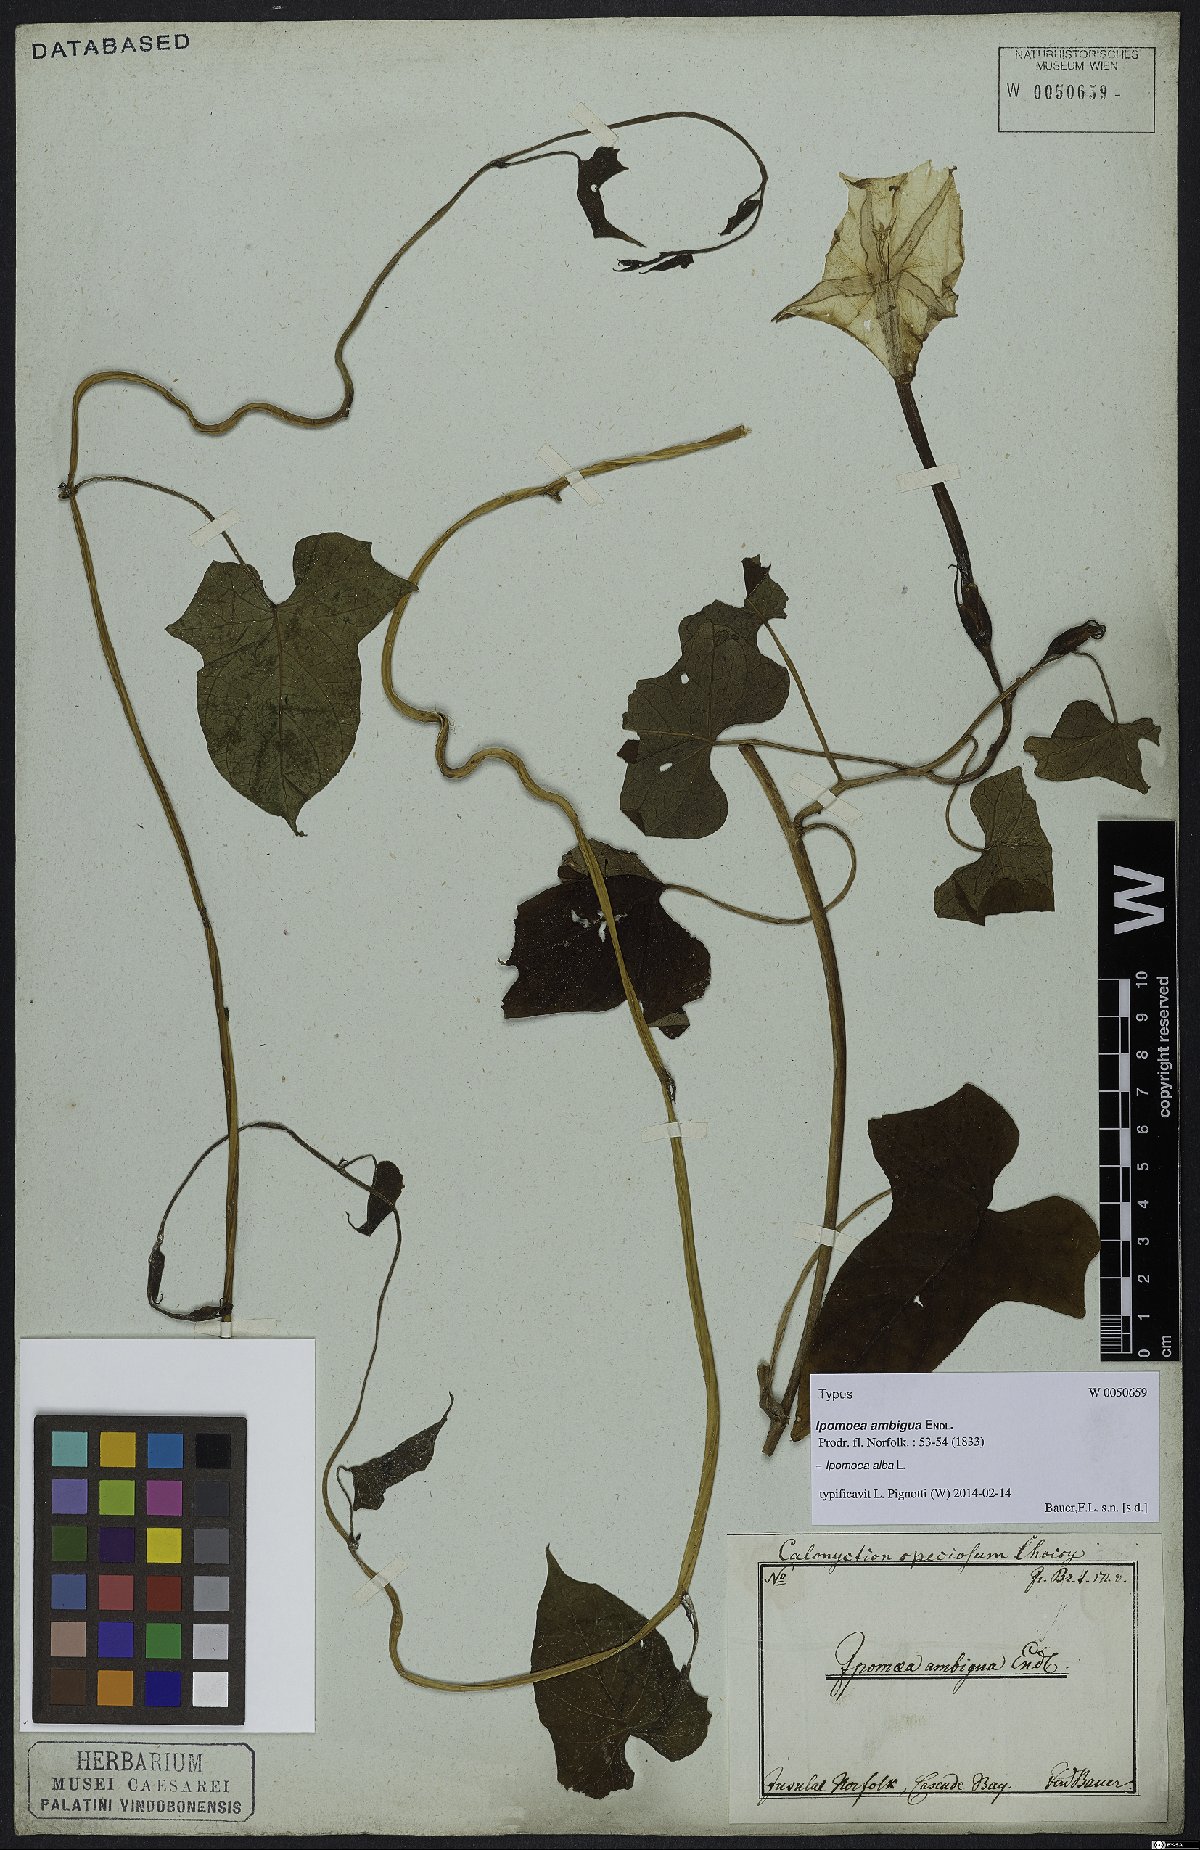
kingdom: Plantae
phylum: Tracheophyta
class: Magnoliopsida
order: Solanales
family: Convolvulaceae
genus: Ipomoea
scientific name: Ipomoea alba
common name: Moonflower
